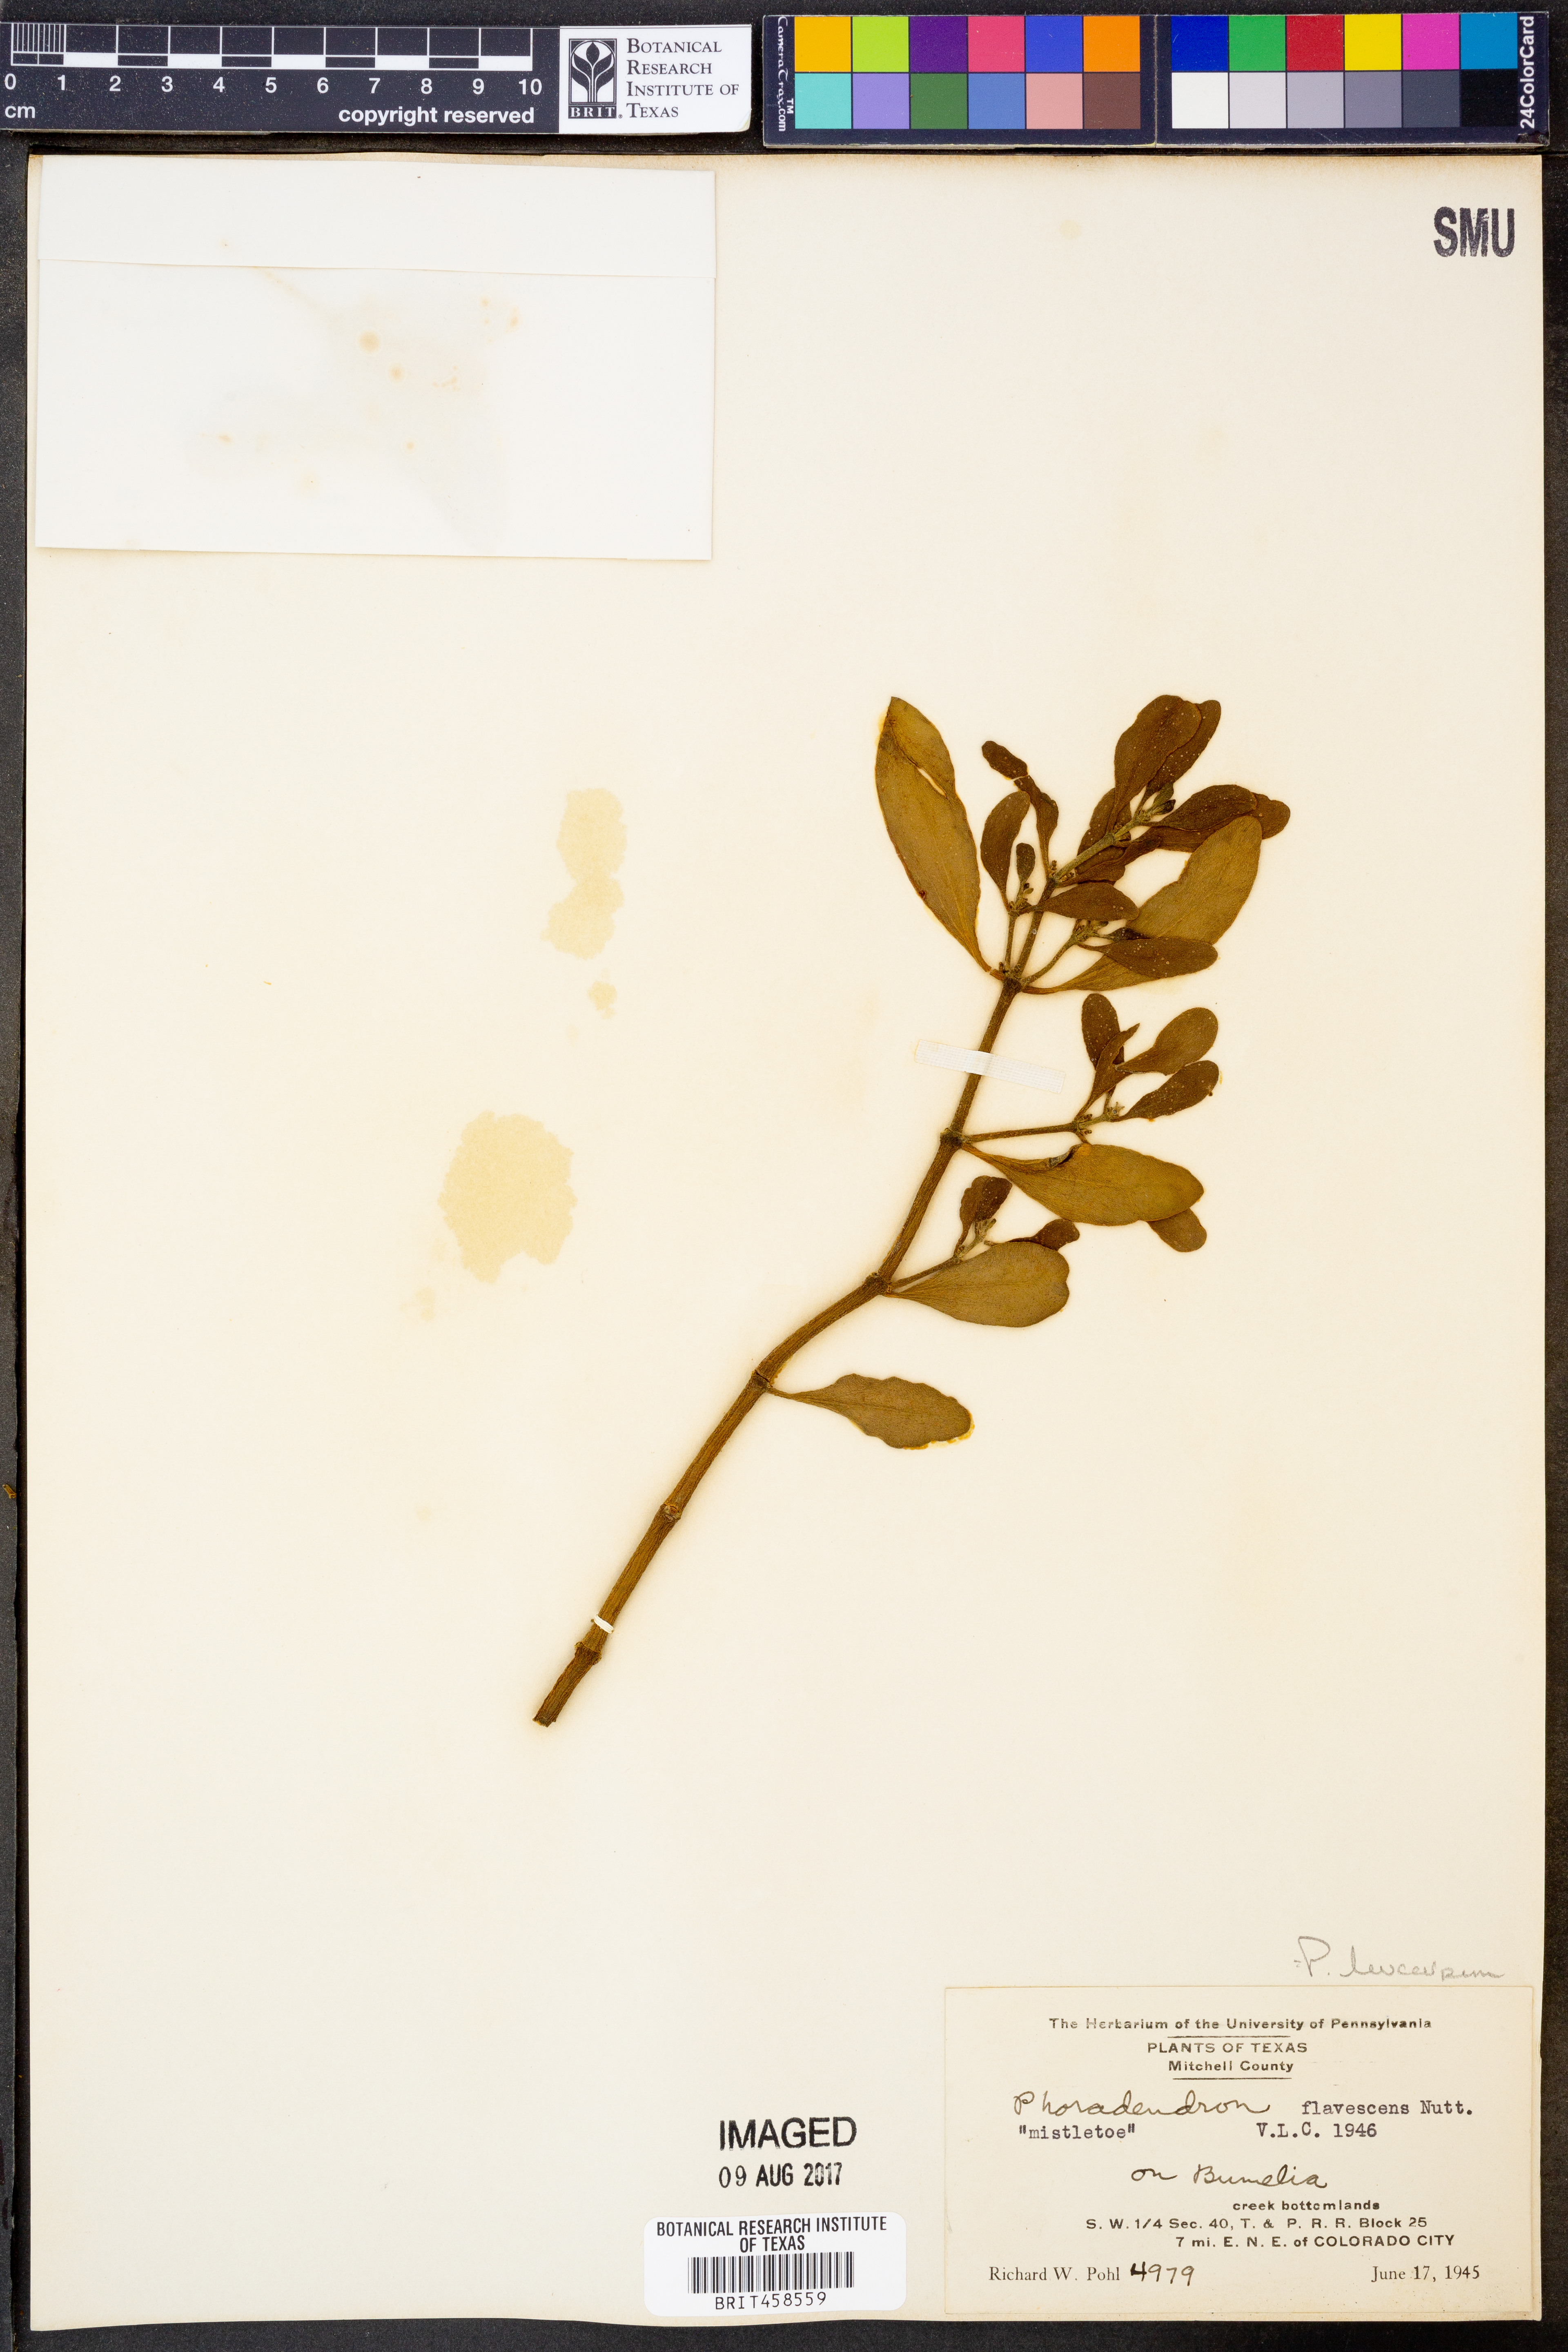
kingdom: Plantae
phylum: Tracheophyta
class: Magnoliopsida
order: Santalales
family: Viscaceae
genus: Phoradendron
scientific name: Phoradendron leucarpum
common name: Pacific mistletoe
